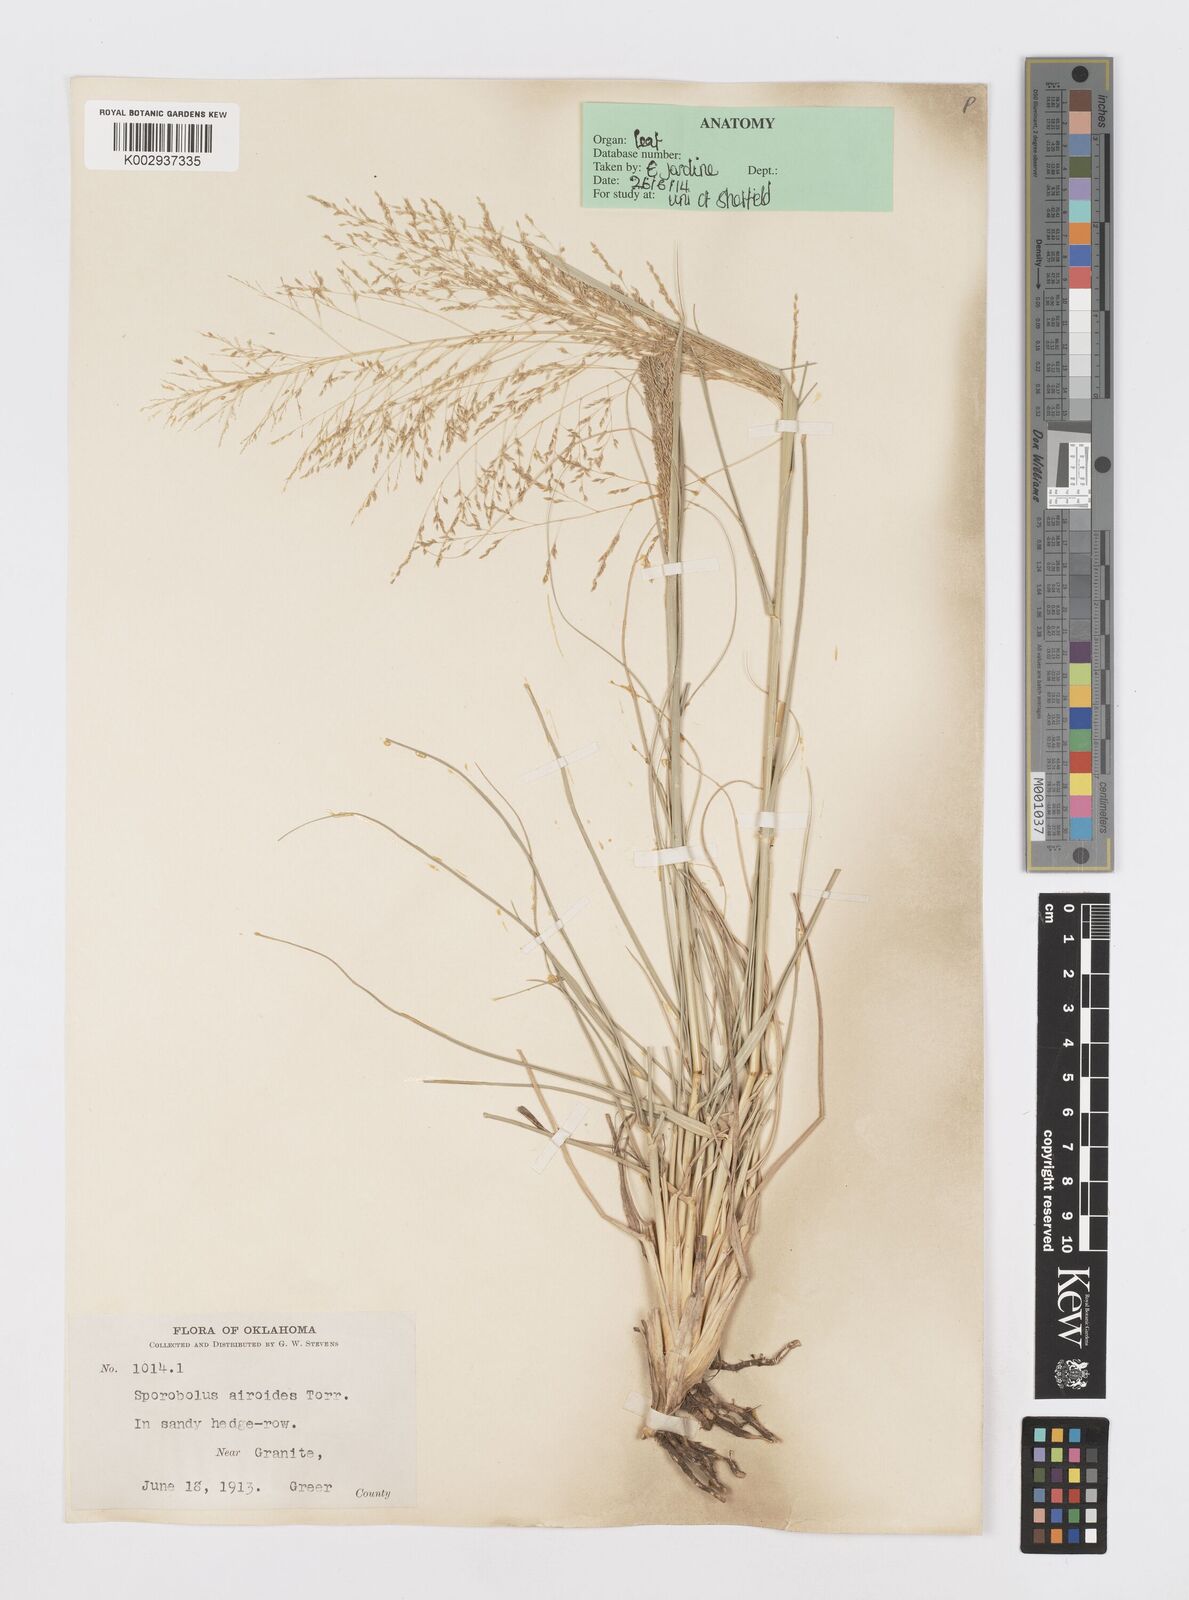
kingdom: Plantae
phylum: Tracheophyta
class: Liliopsida
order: Poales
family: Poaceae
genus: Sporobolus
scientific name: Sporobolus airoides
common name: Alkali sacaton
